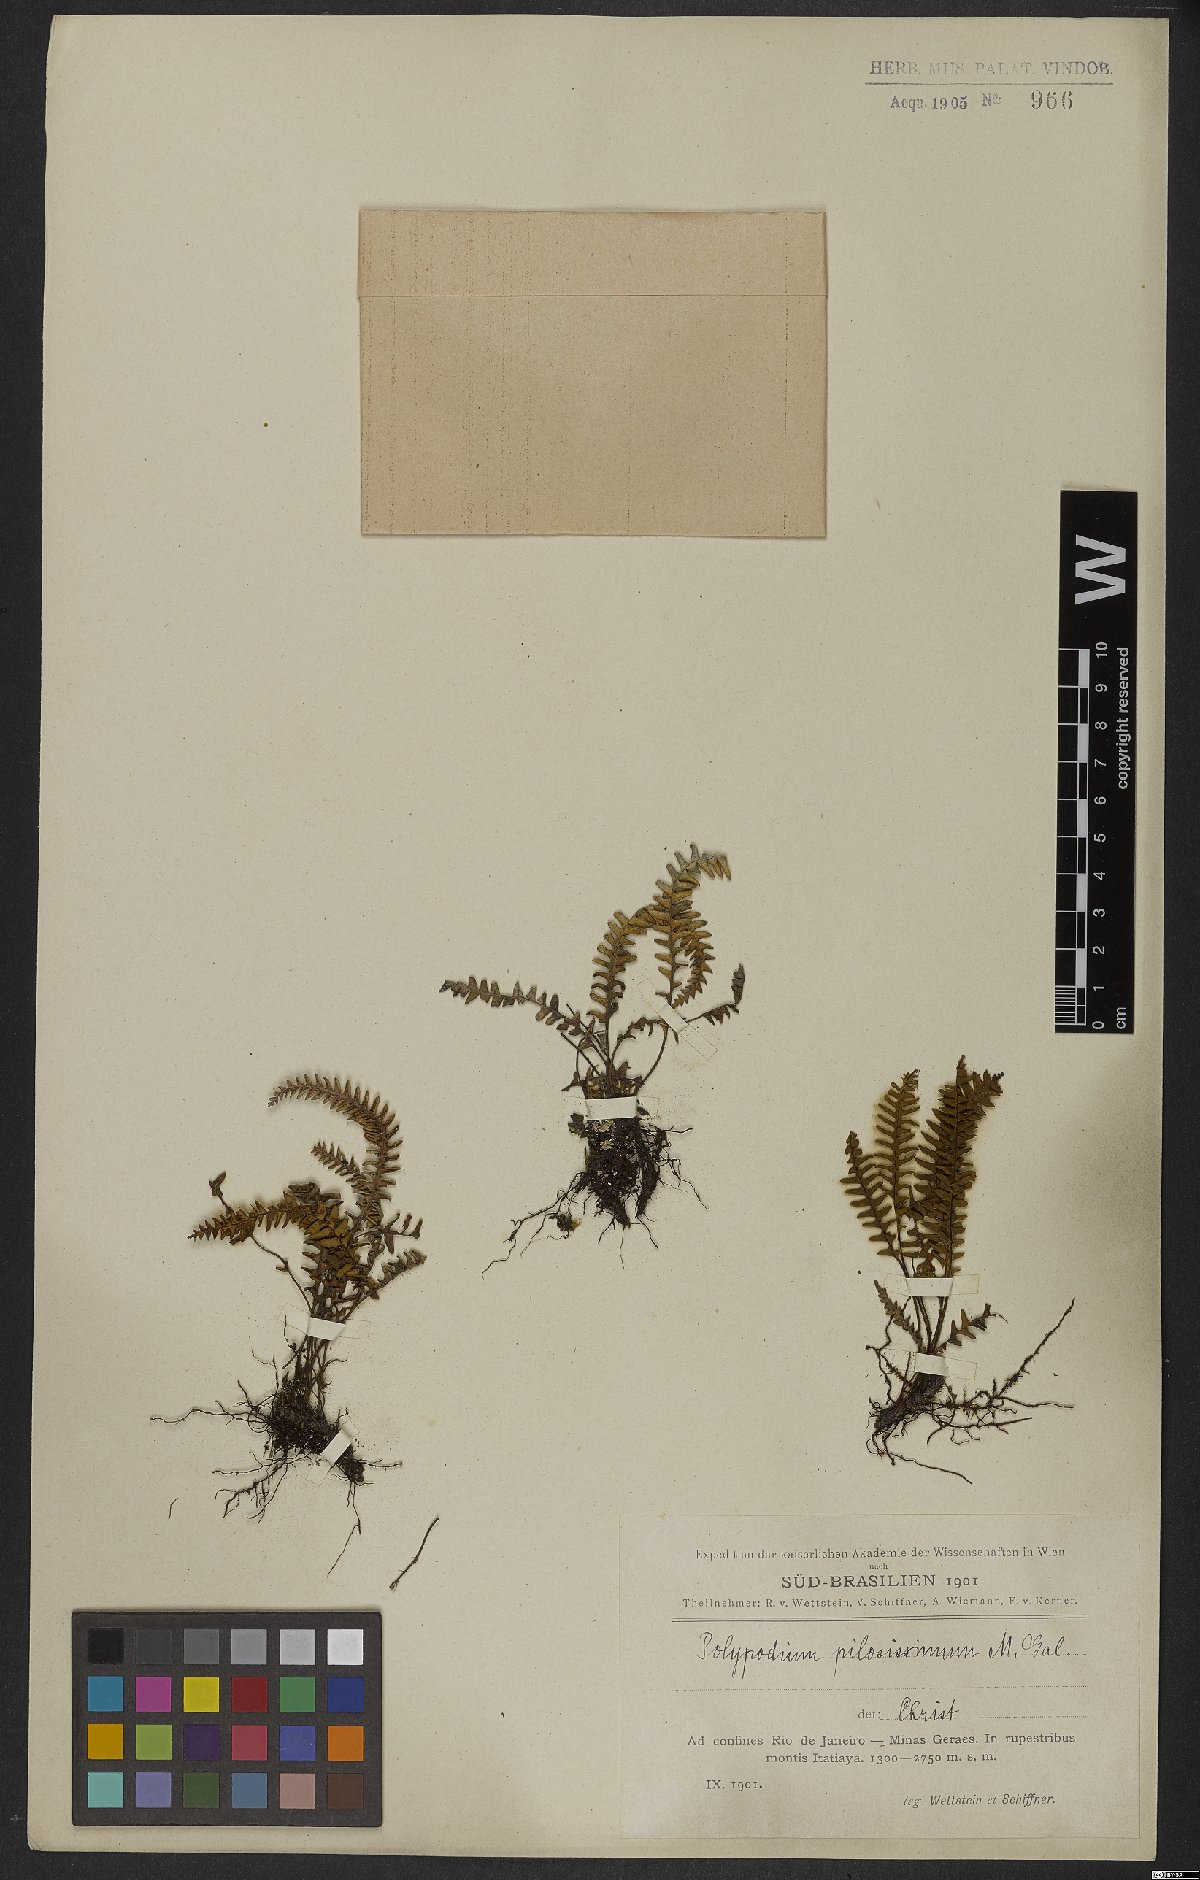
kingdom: Plantae
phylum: Tracheophyta
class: Polypodiopsida
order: Polypodiales
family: Polypodiaceae
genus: Melpomene
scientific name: Melpomene pilosissima
